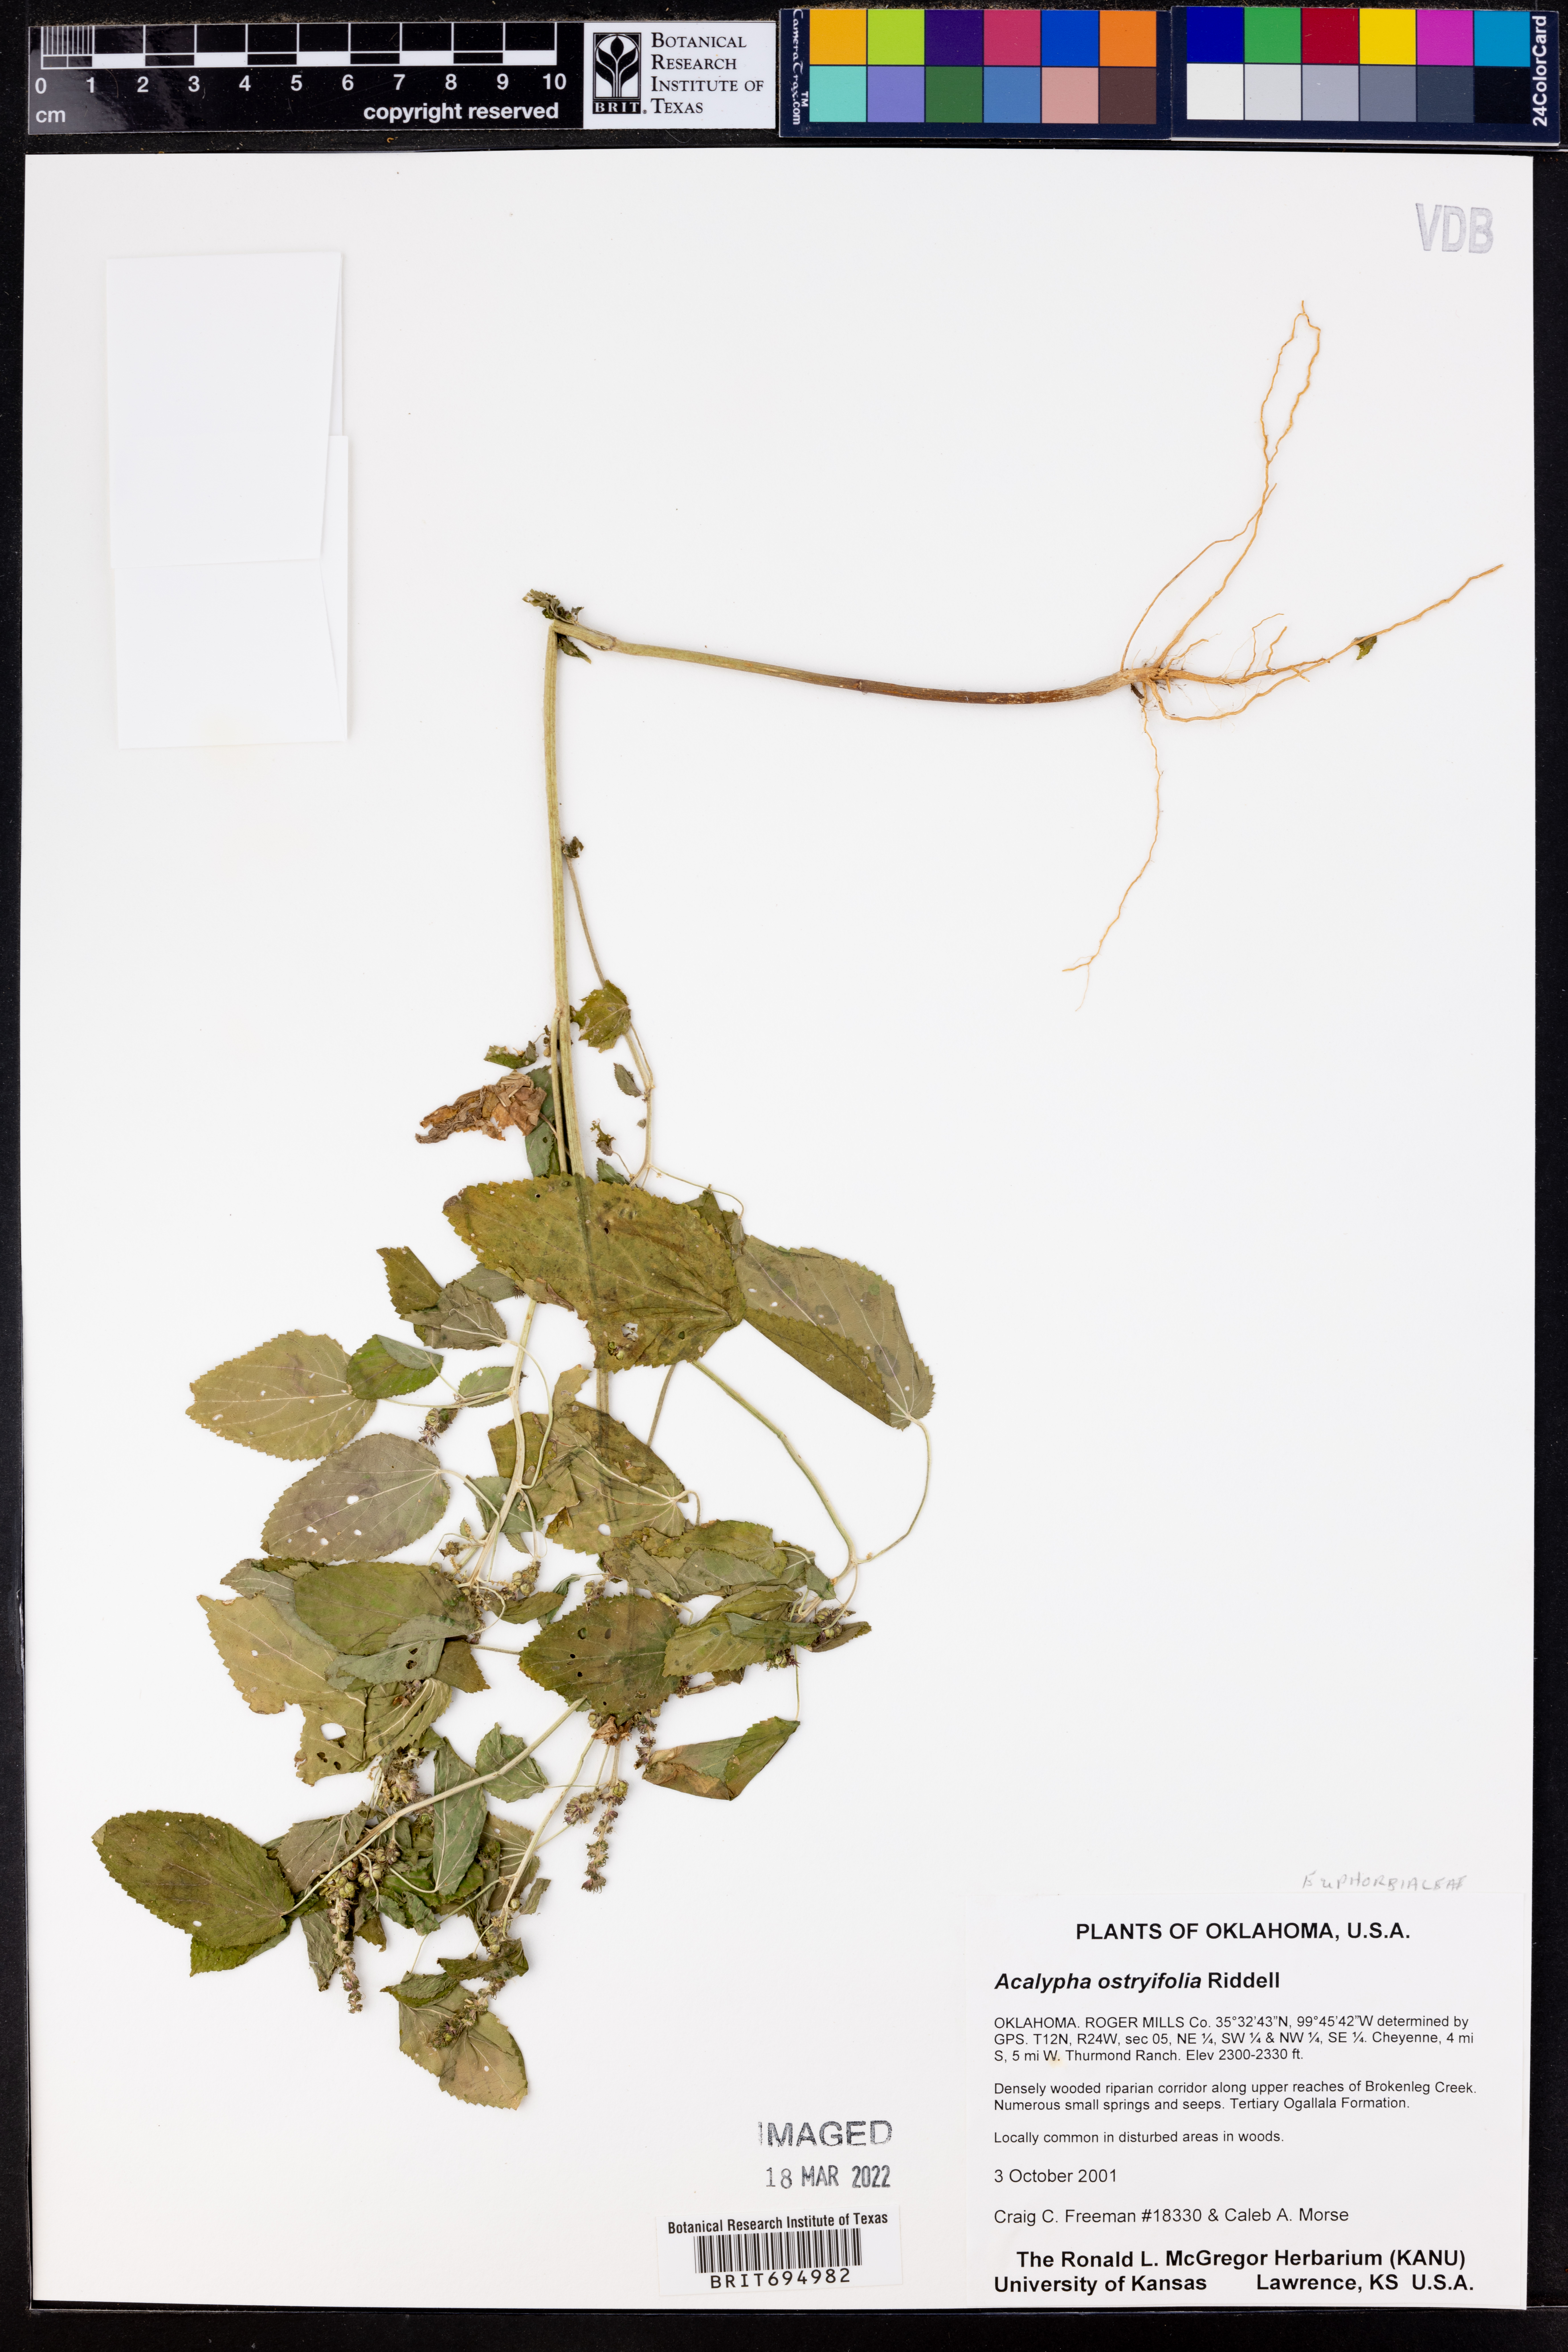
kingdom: Plantae
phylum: Tracheophyta
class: Magnoliopsida
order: Malpighiales
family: Euphorbiaceae
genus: Acalypha
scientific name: Acalypha persimilis
